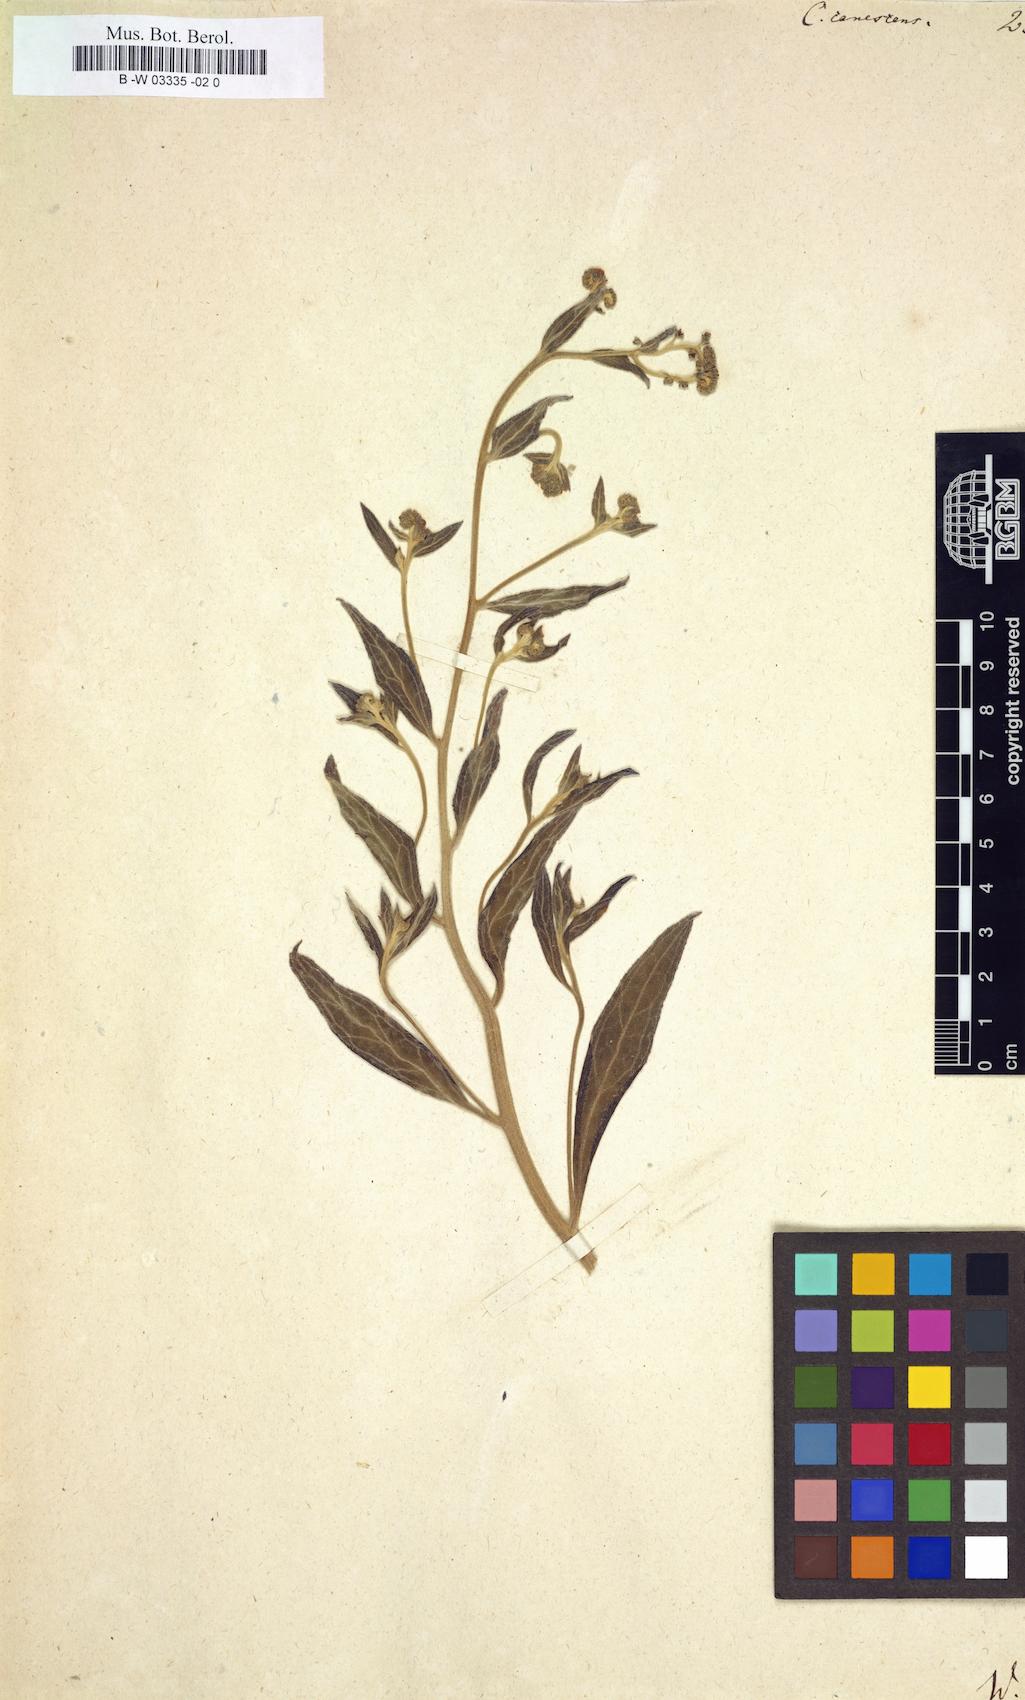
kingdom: Plantae
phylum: Tracheophyta
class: Magnoliopsida
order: Boraginales
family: Boraginaceae
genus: Paracynoglossum
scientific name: Paracynoglossum
